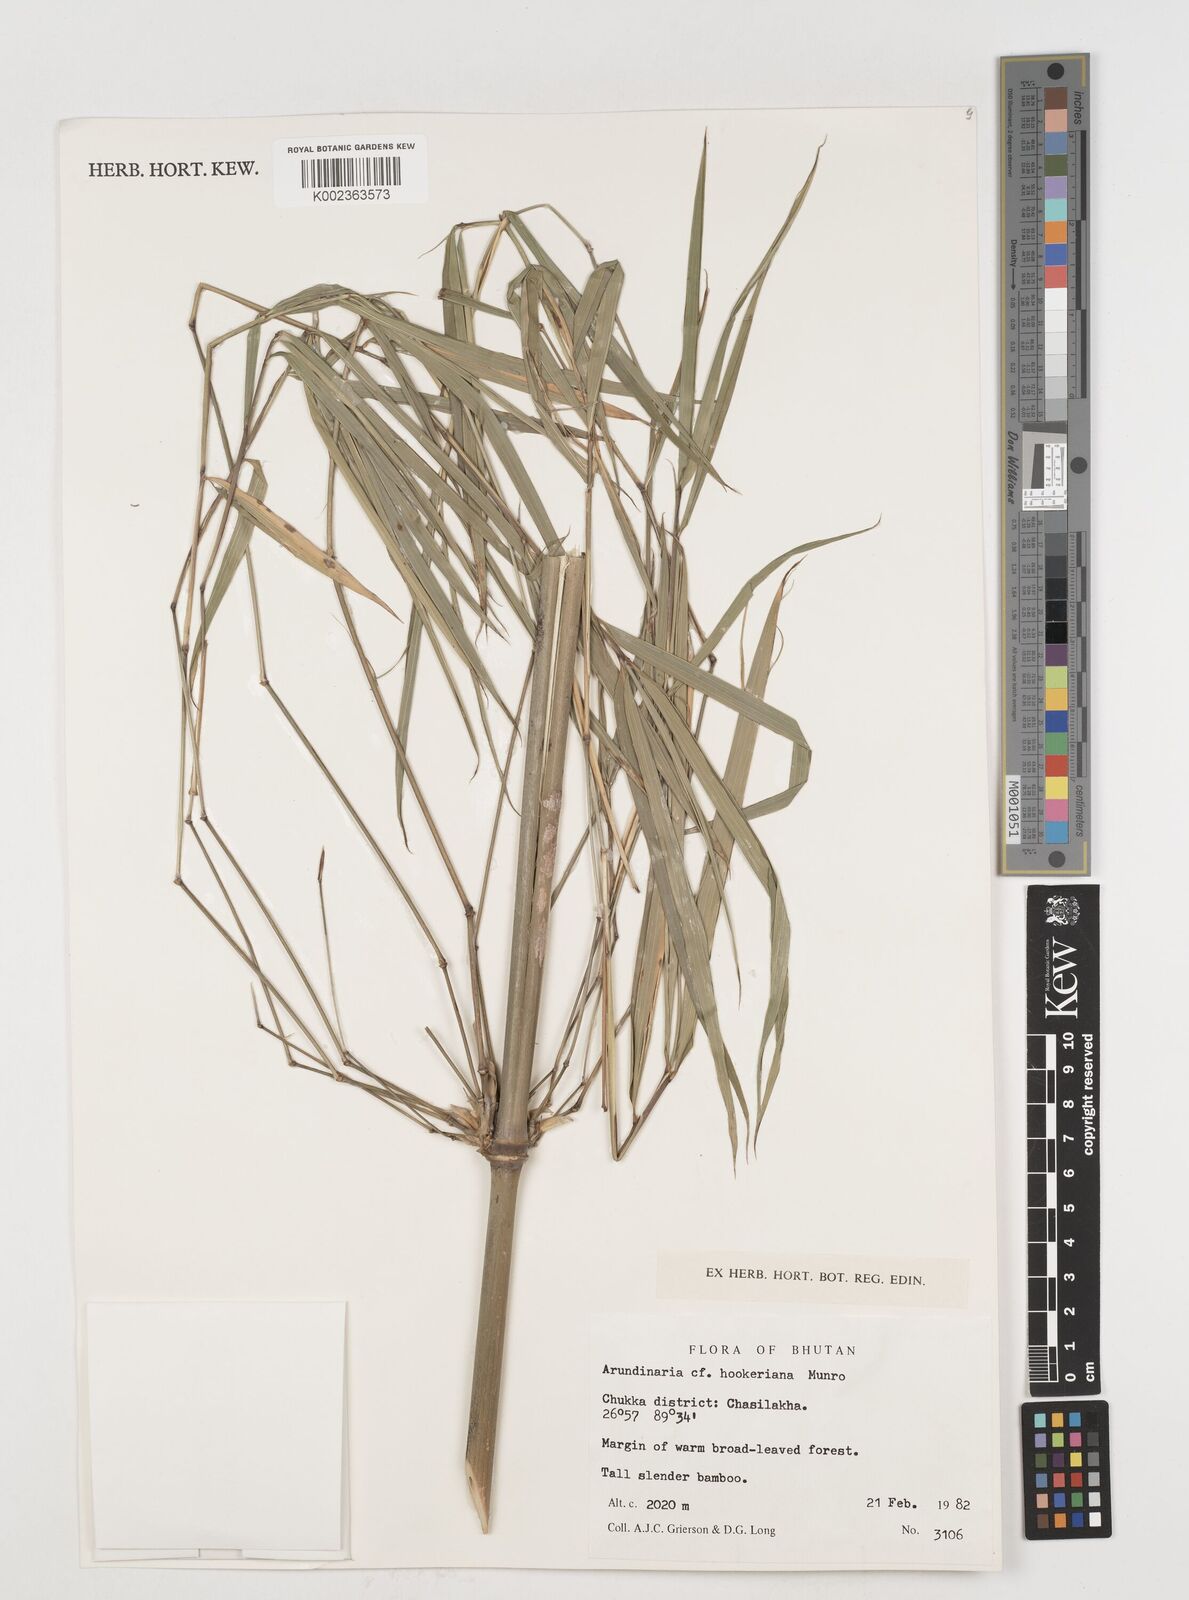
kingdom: Plantae
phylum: Tracheophyta
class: Liliopsida
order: Poales
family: Poaceae
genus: Himalayacalamus
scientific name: Himalayacalamus hookerianus
